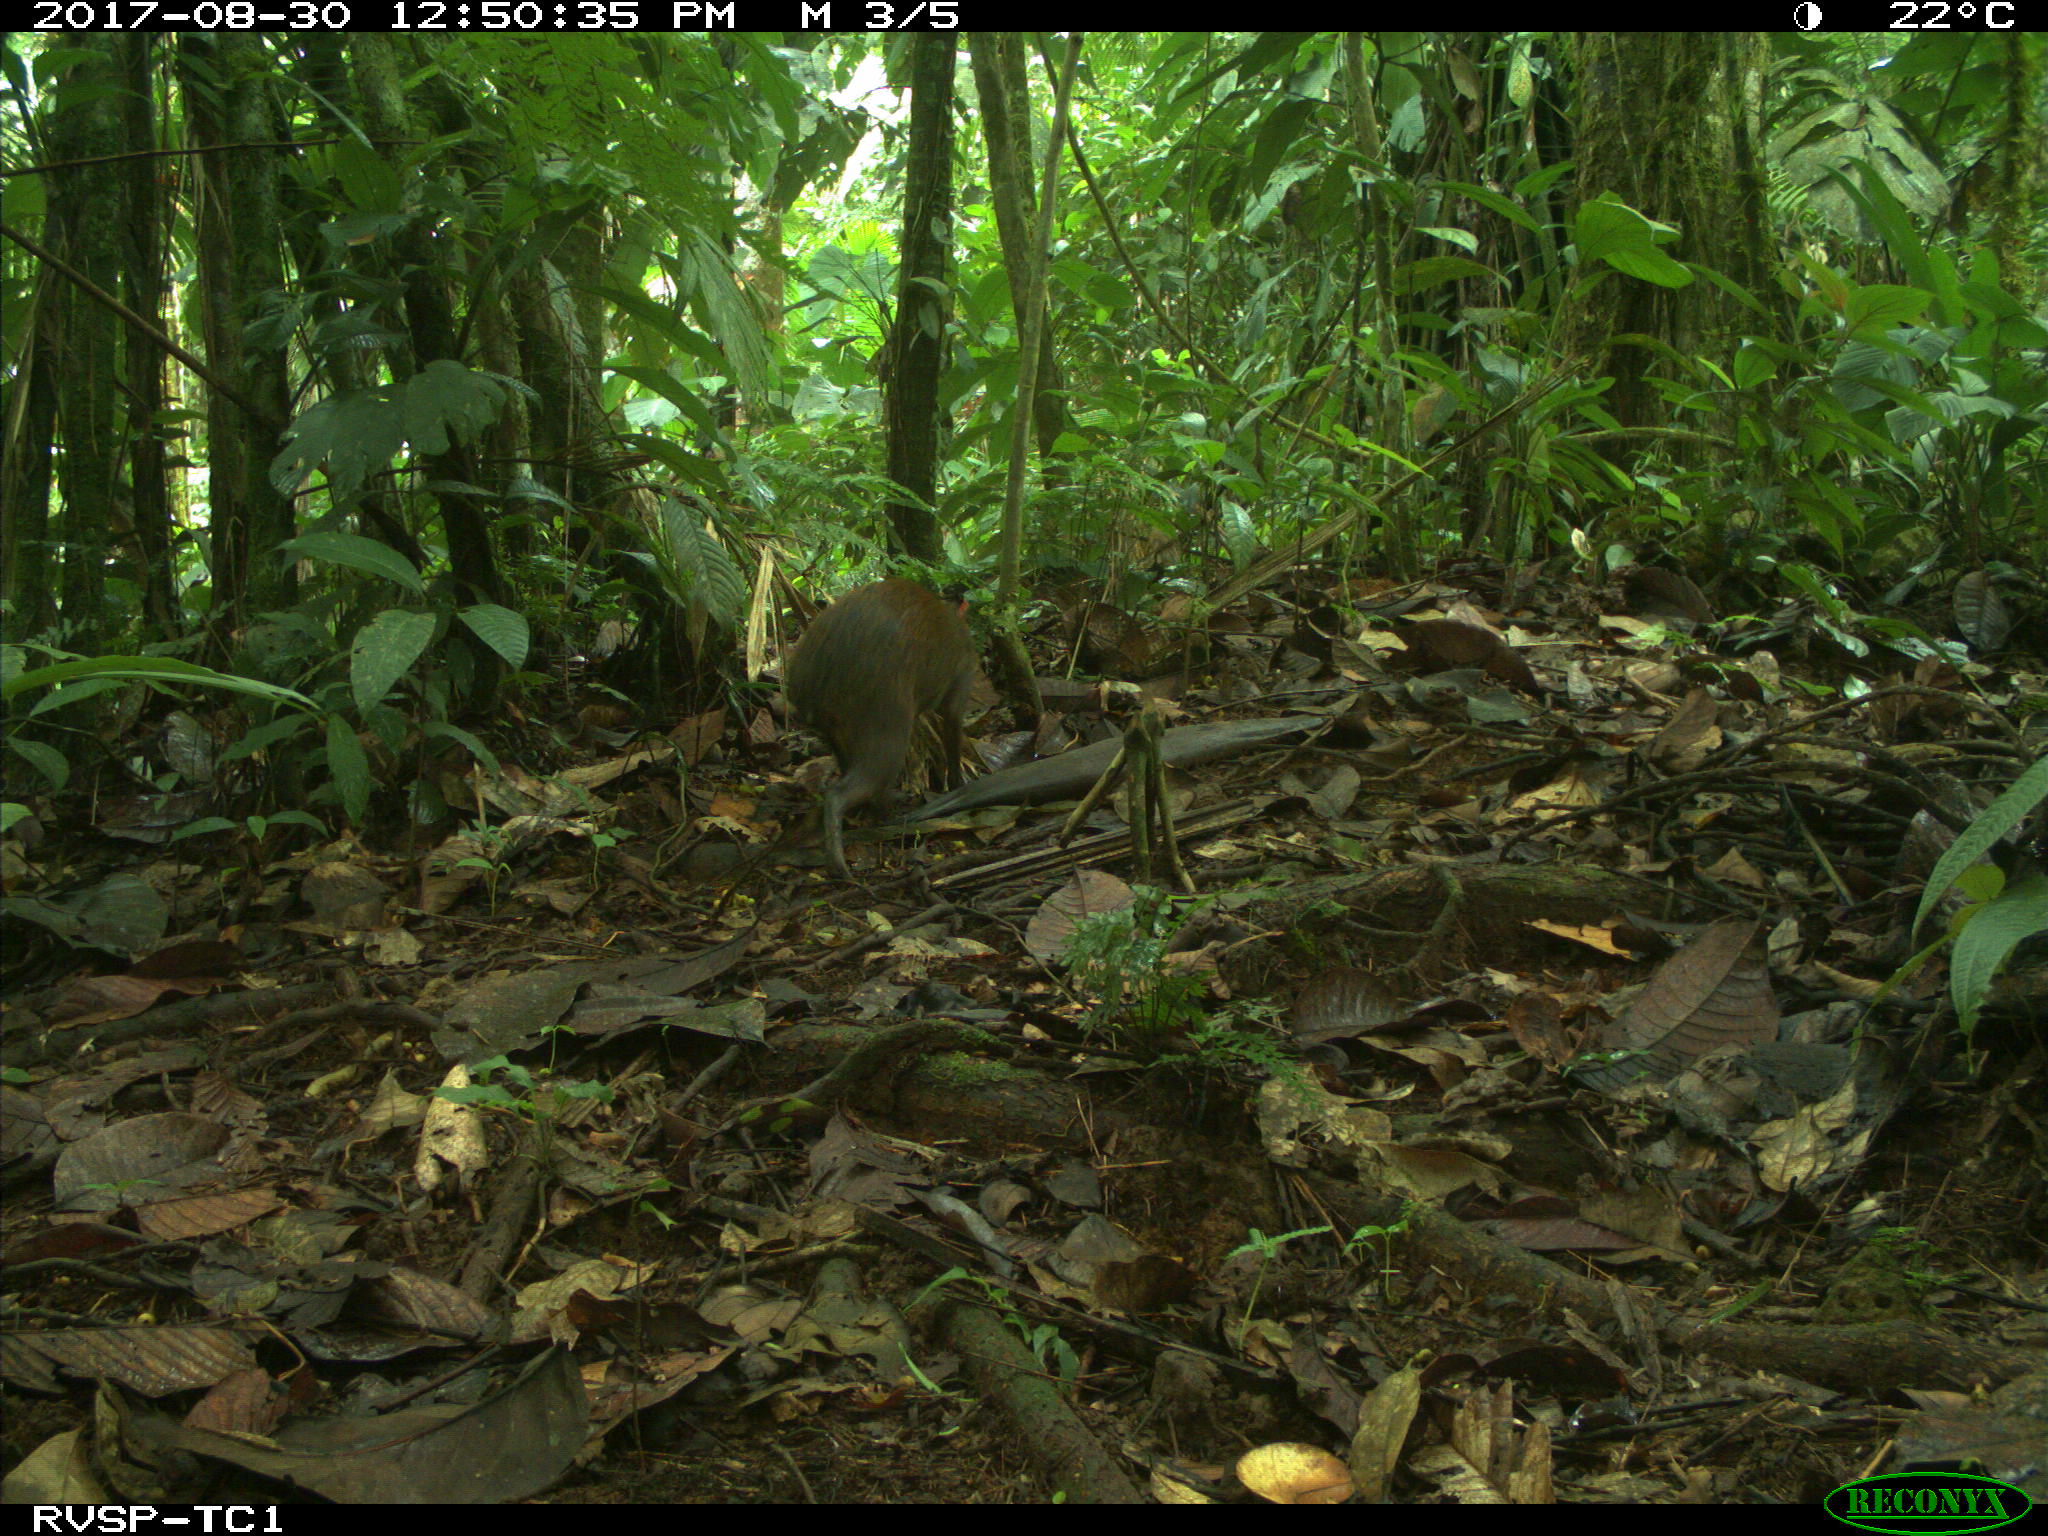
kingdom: Animalia
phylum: Chordata
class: Mammalia
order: Rodentia
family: Dasyproctidae
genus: Dasyprocta
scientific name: Dasyprocta punctata
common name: Central american agouti
